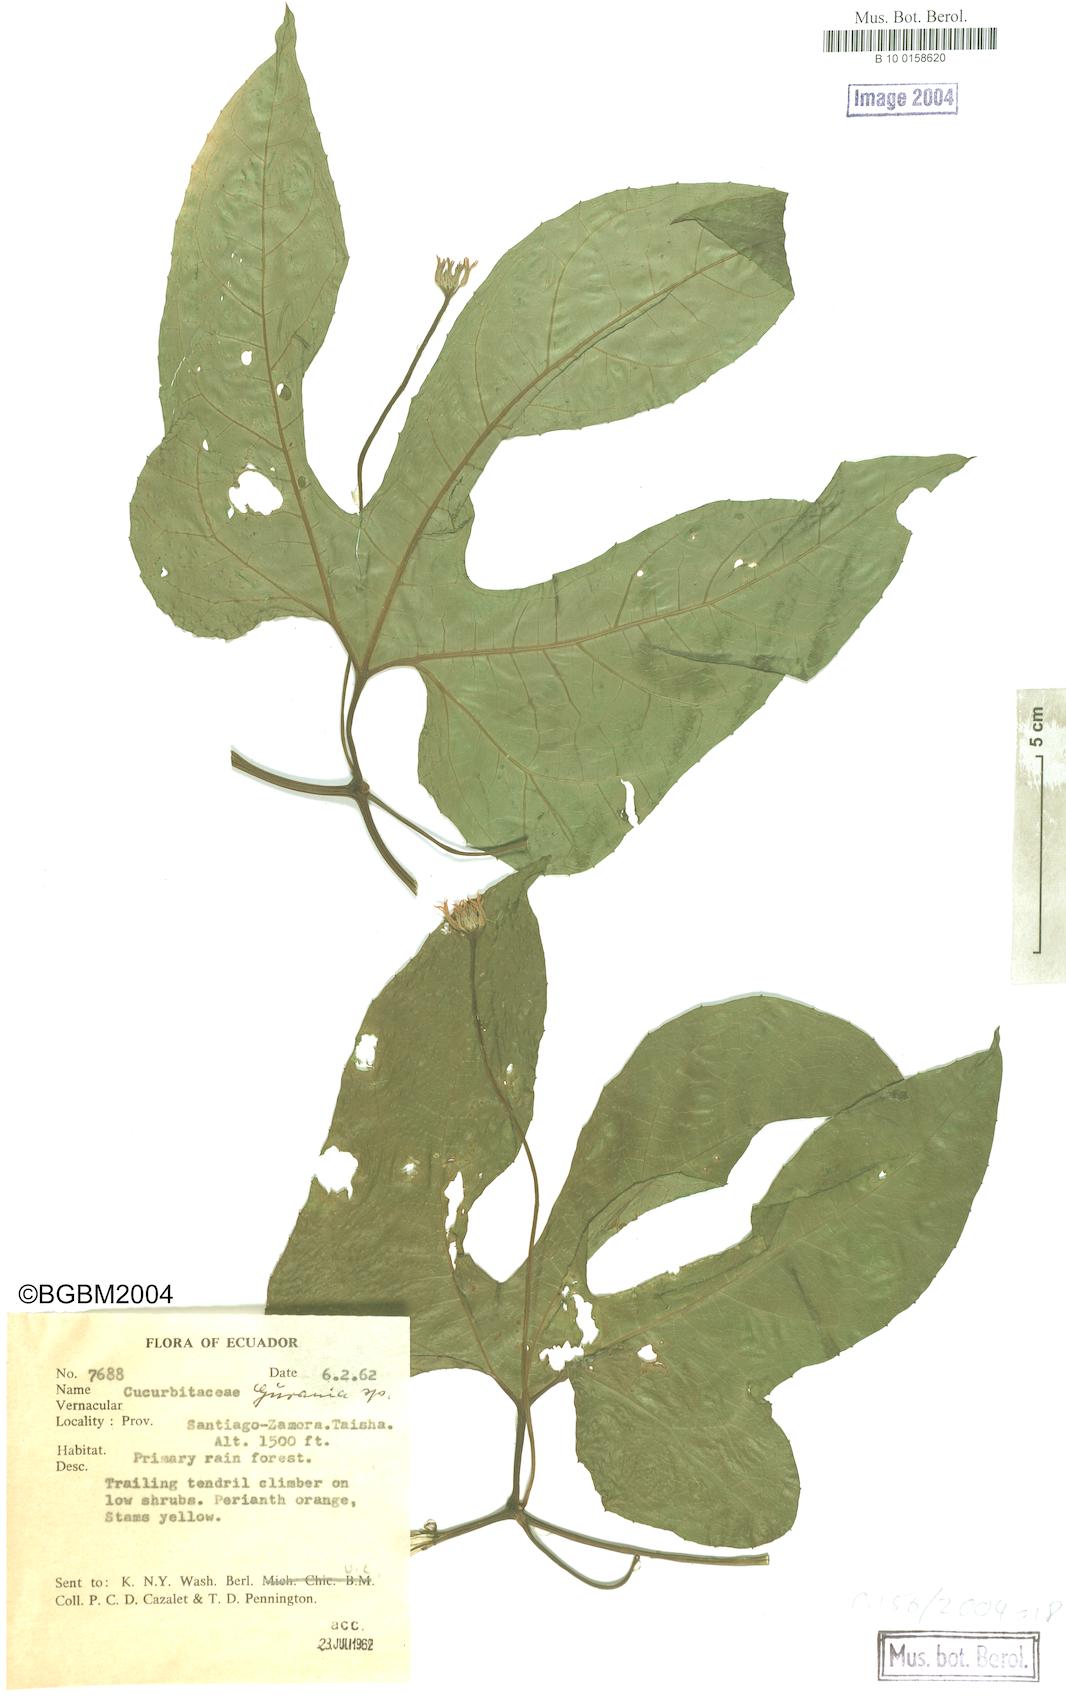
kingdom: Plantae
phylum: Tracheophyta
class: Magnoliopsida
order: Cucurbitales
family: Cucurbitaceae
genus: Gurania
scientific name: Gurania
